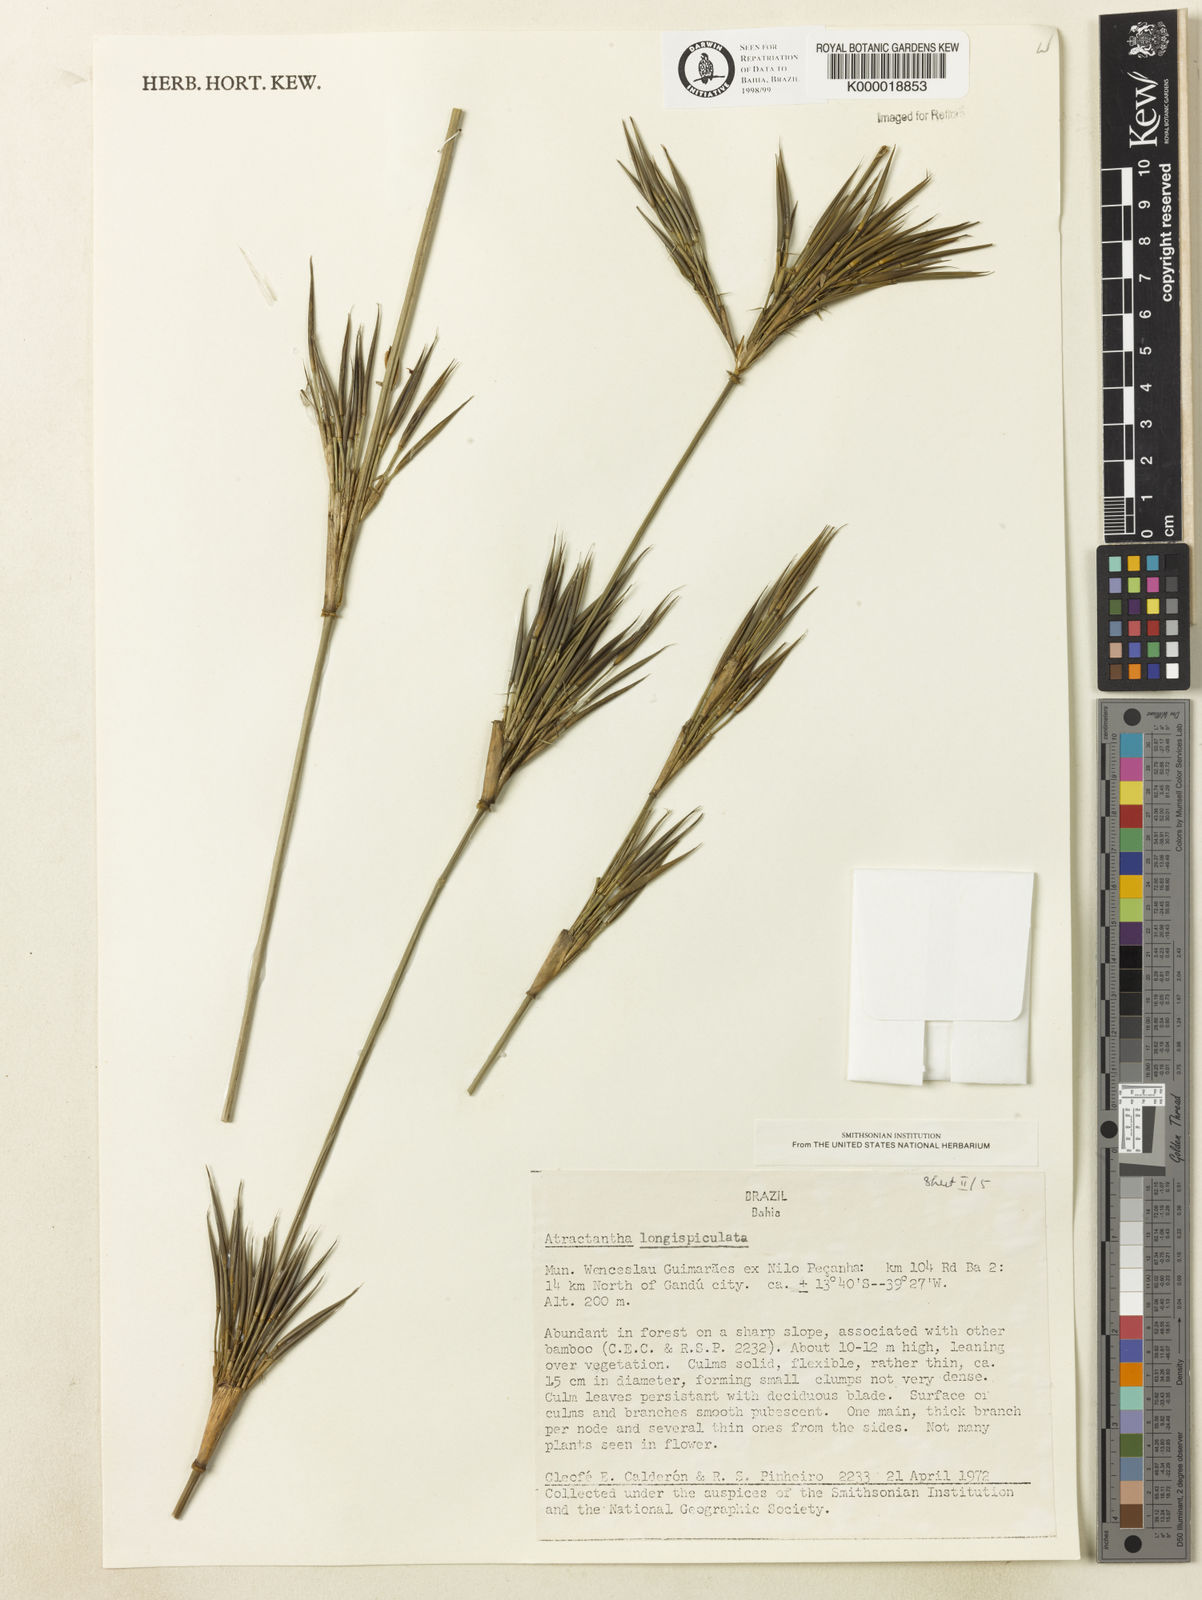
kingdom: Plantae
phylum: Tracheophyta
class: Liliopsida
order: Poales
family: Poaceae
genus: Atractantha
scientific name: Atractantha aureolanata
